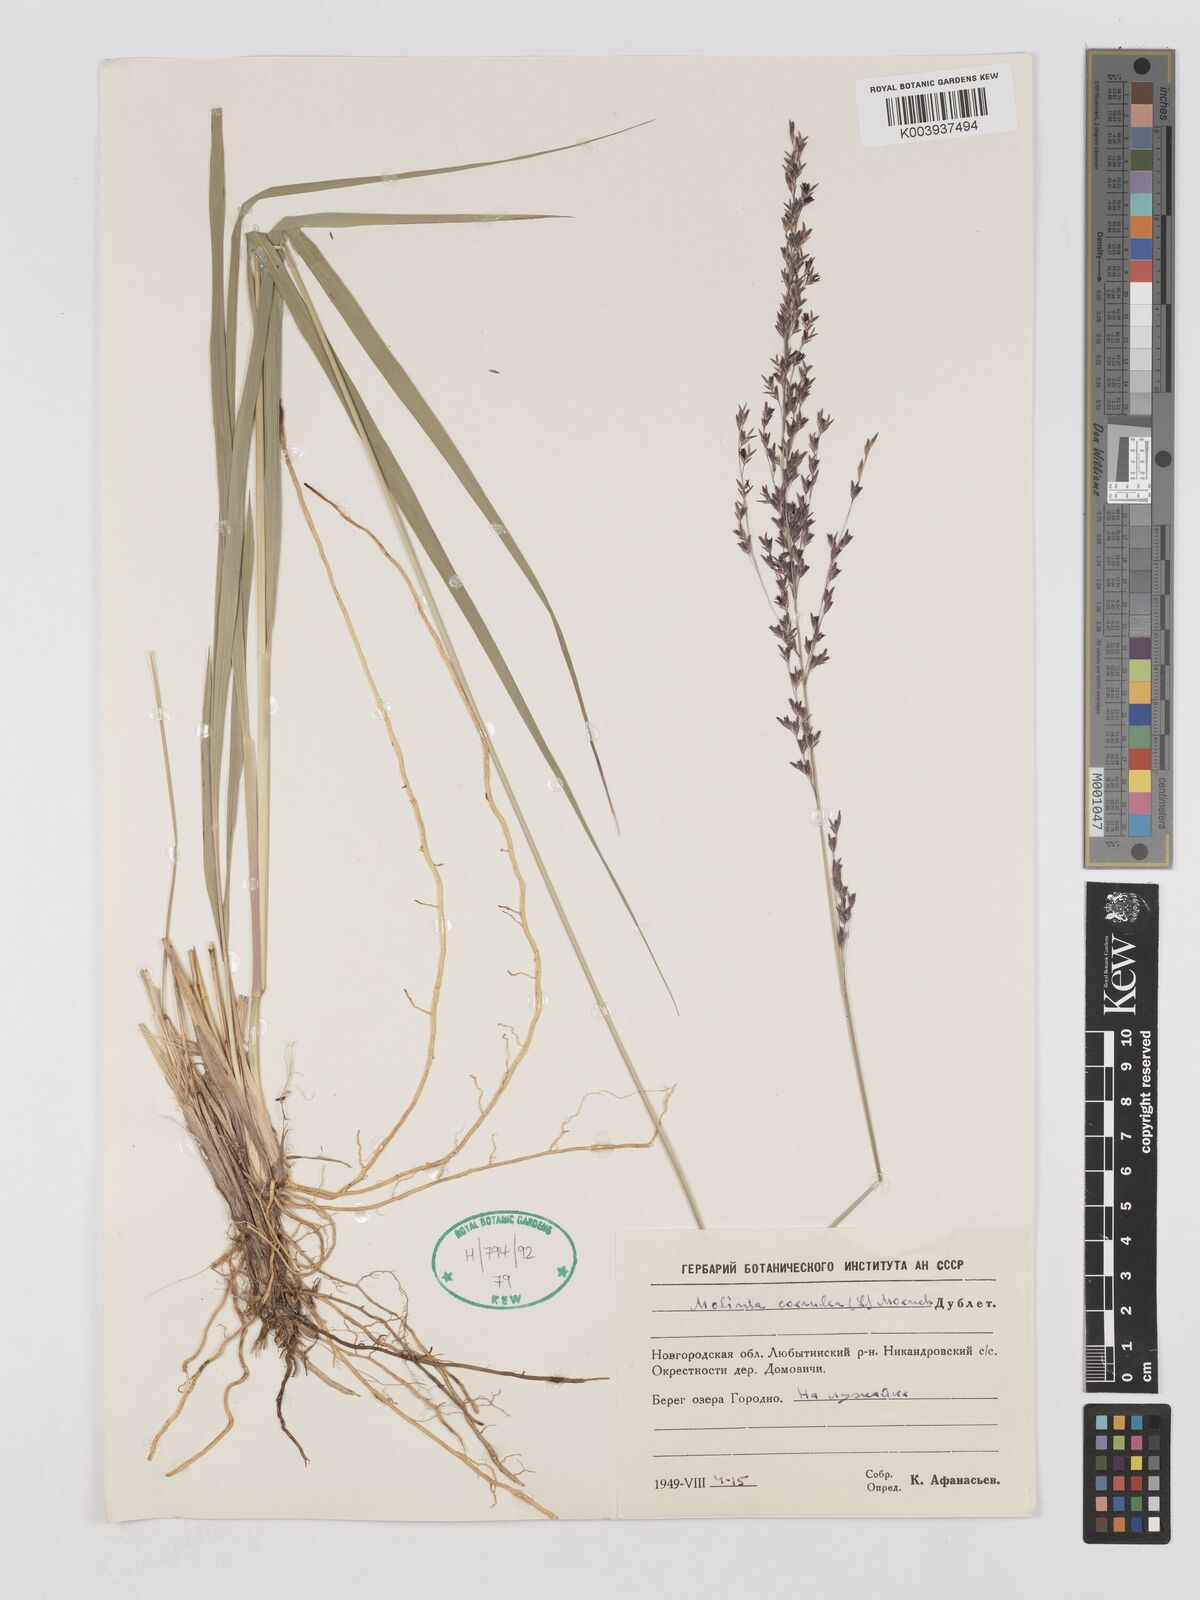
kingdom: Plantae
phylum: Tracheophyta
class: Liliopsida
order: Poales
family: Poaceae
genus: Molinia
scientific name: Molinia caerulea
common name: Purple moor-grass
